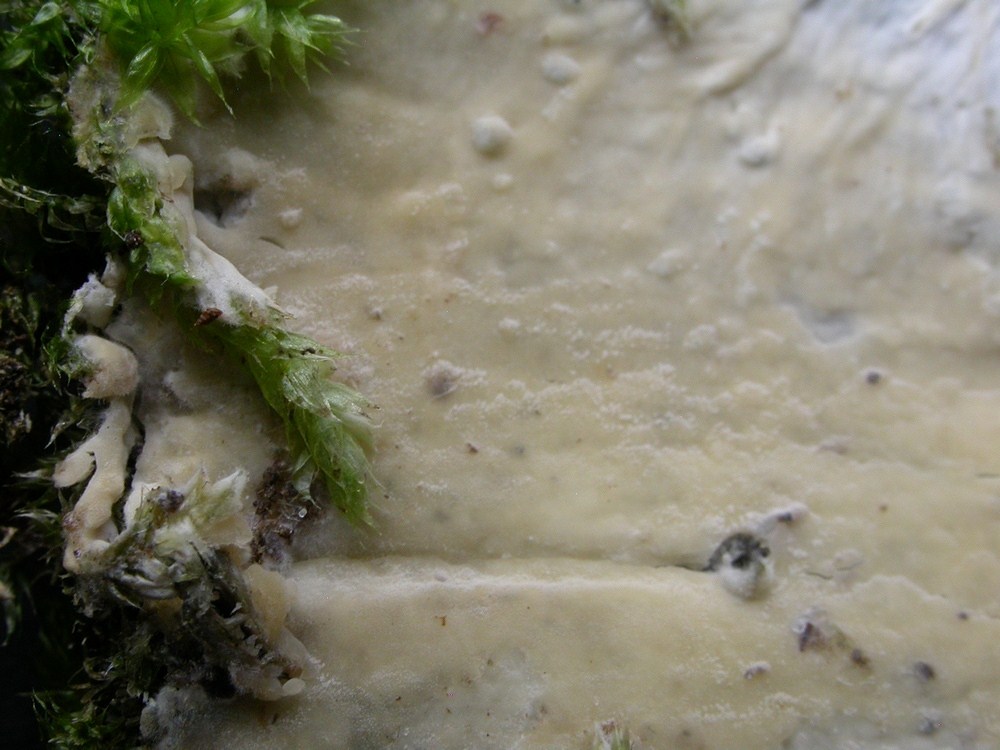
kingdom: Fungi
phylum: Basidiomycota
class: Agaricomycetes
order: Agaricales
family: Radulomycetaceae
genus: Radulomyces
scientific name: Radulomyces confluens
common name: glat naftalinskind
